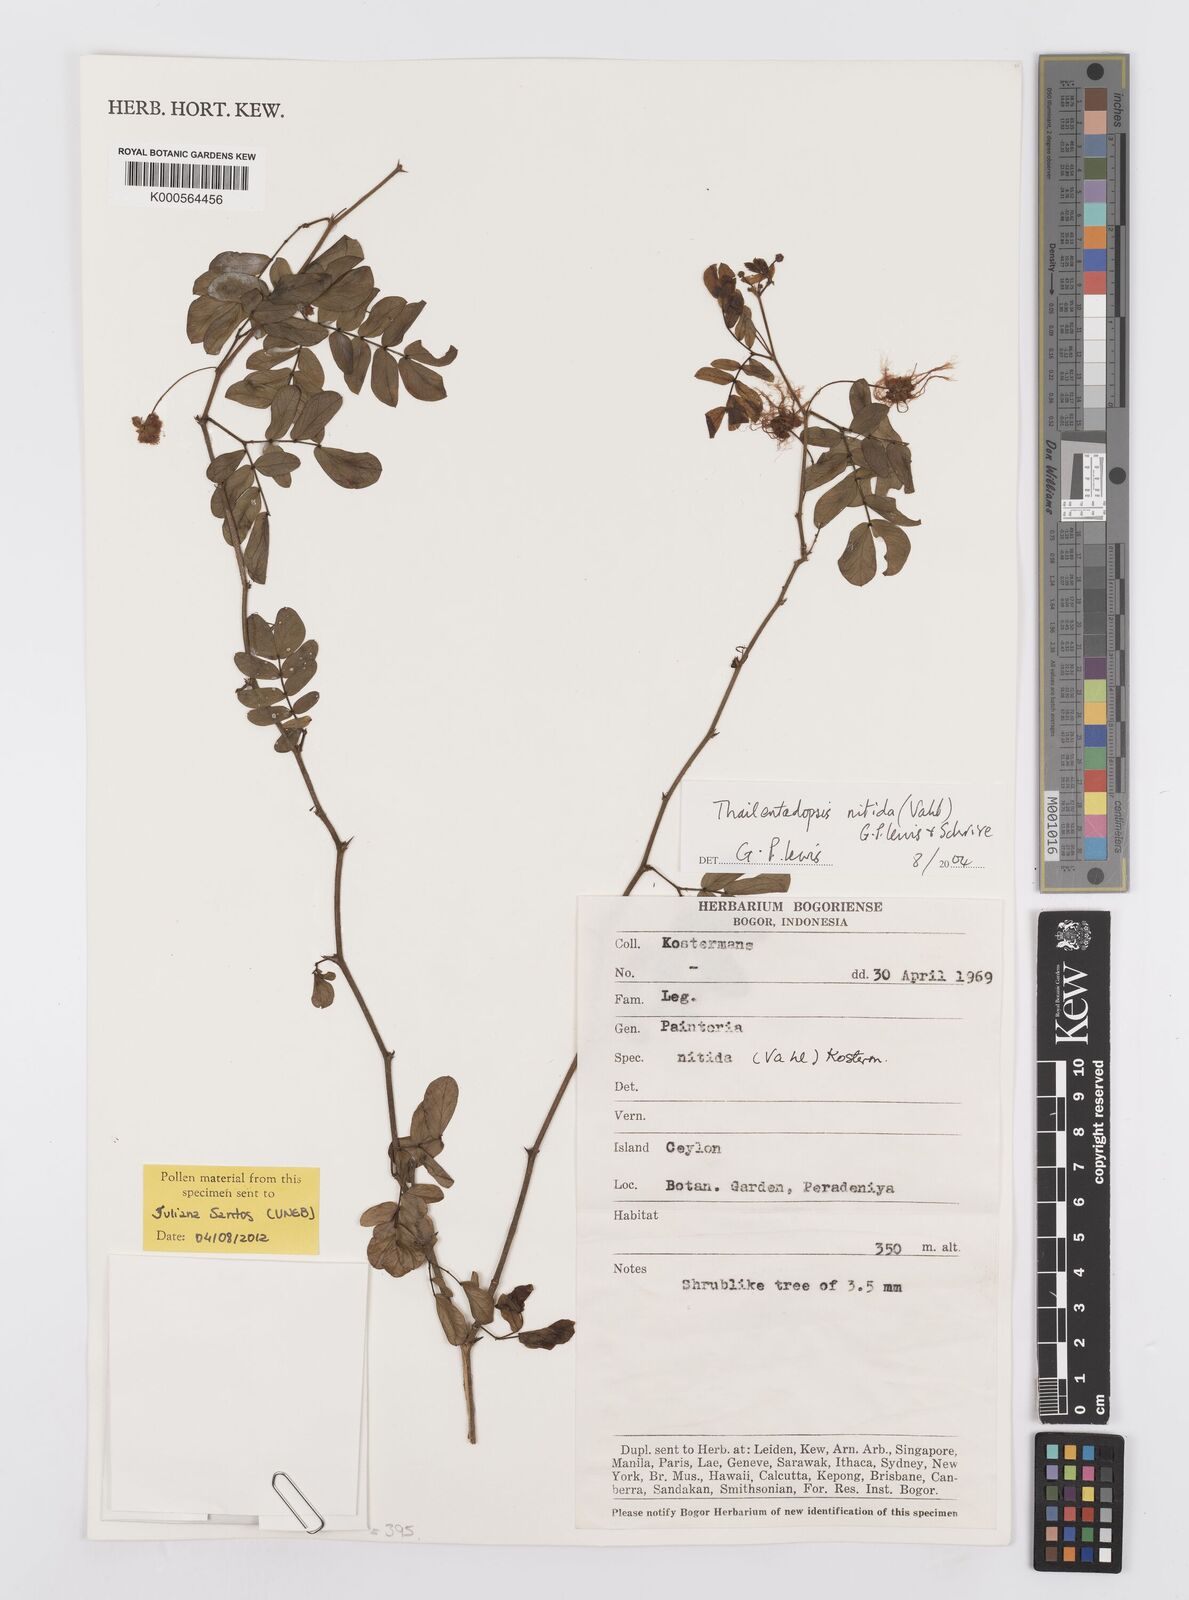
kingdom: Plantae
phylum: Tracheophyta
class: Magnoliopsida
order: Fabales
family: Fabaceae
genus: Thailentadopsis
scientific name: Thailentadopsis nitida
